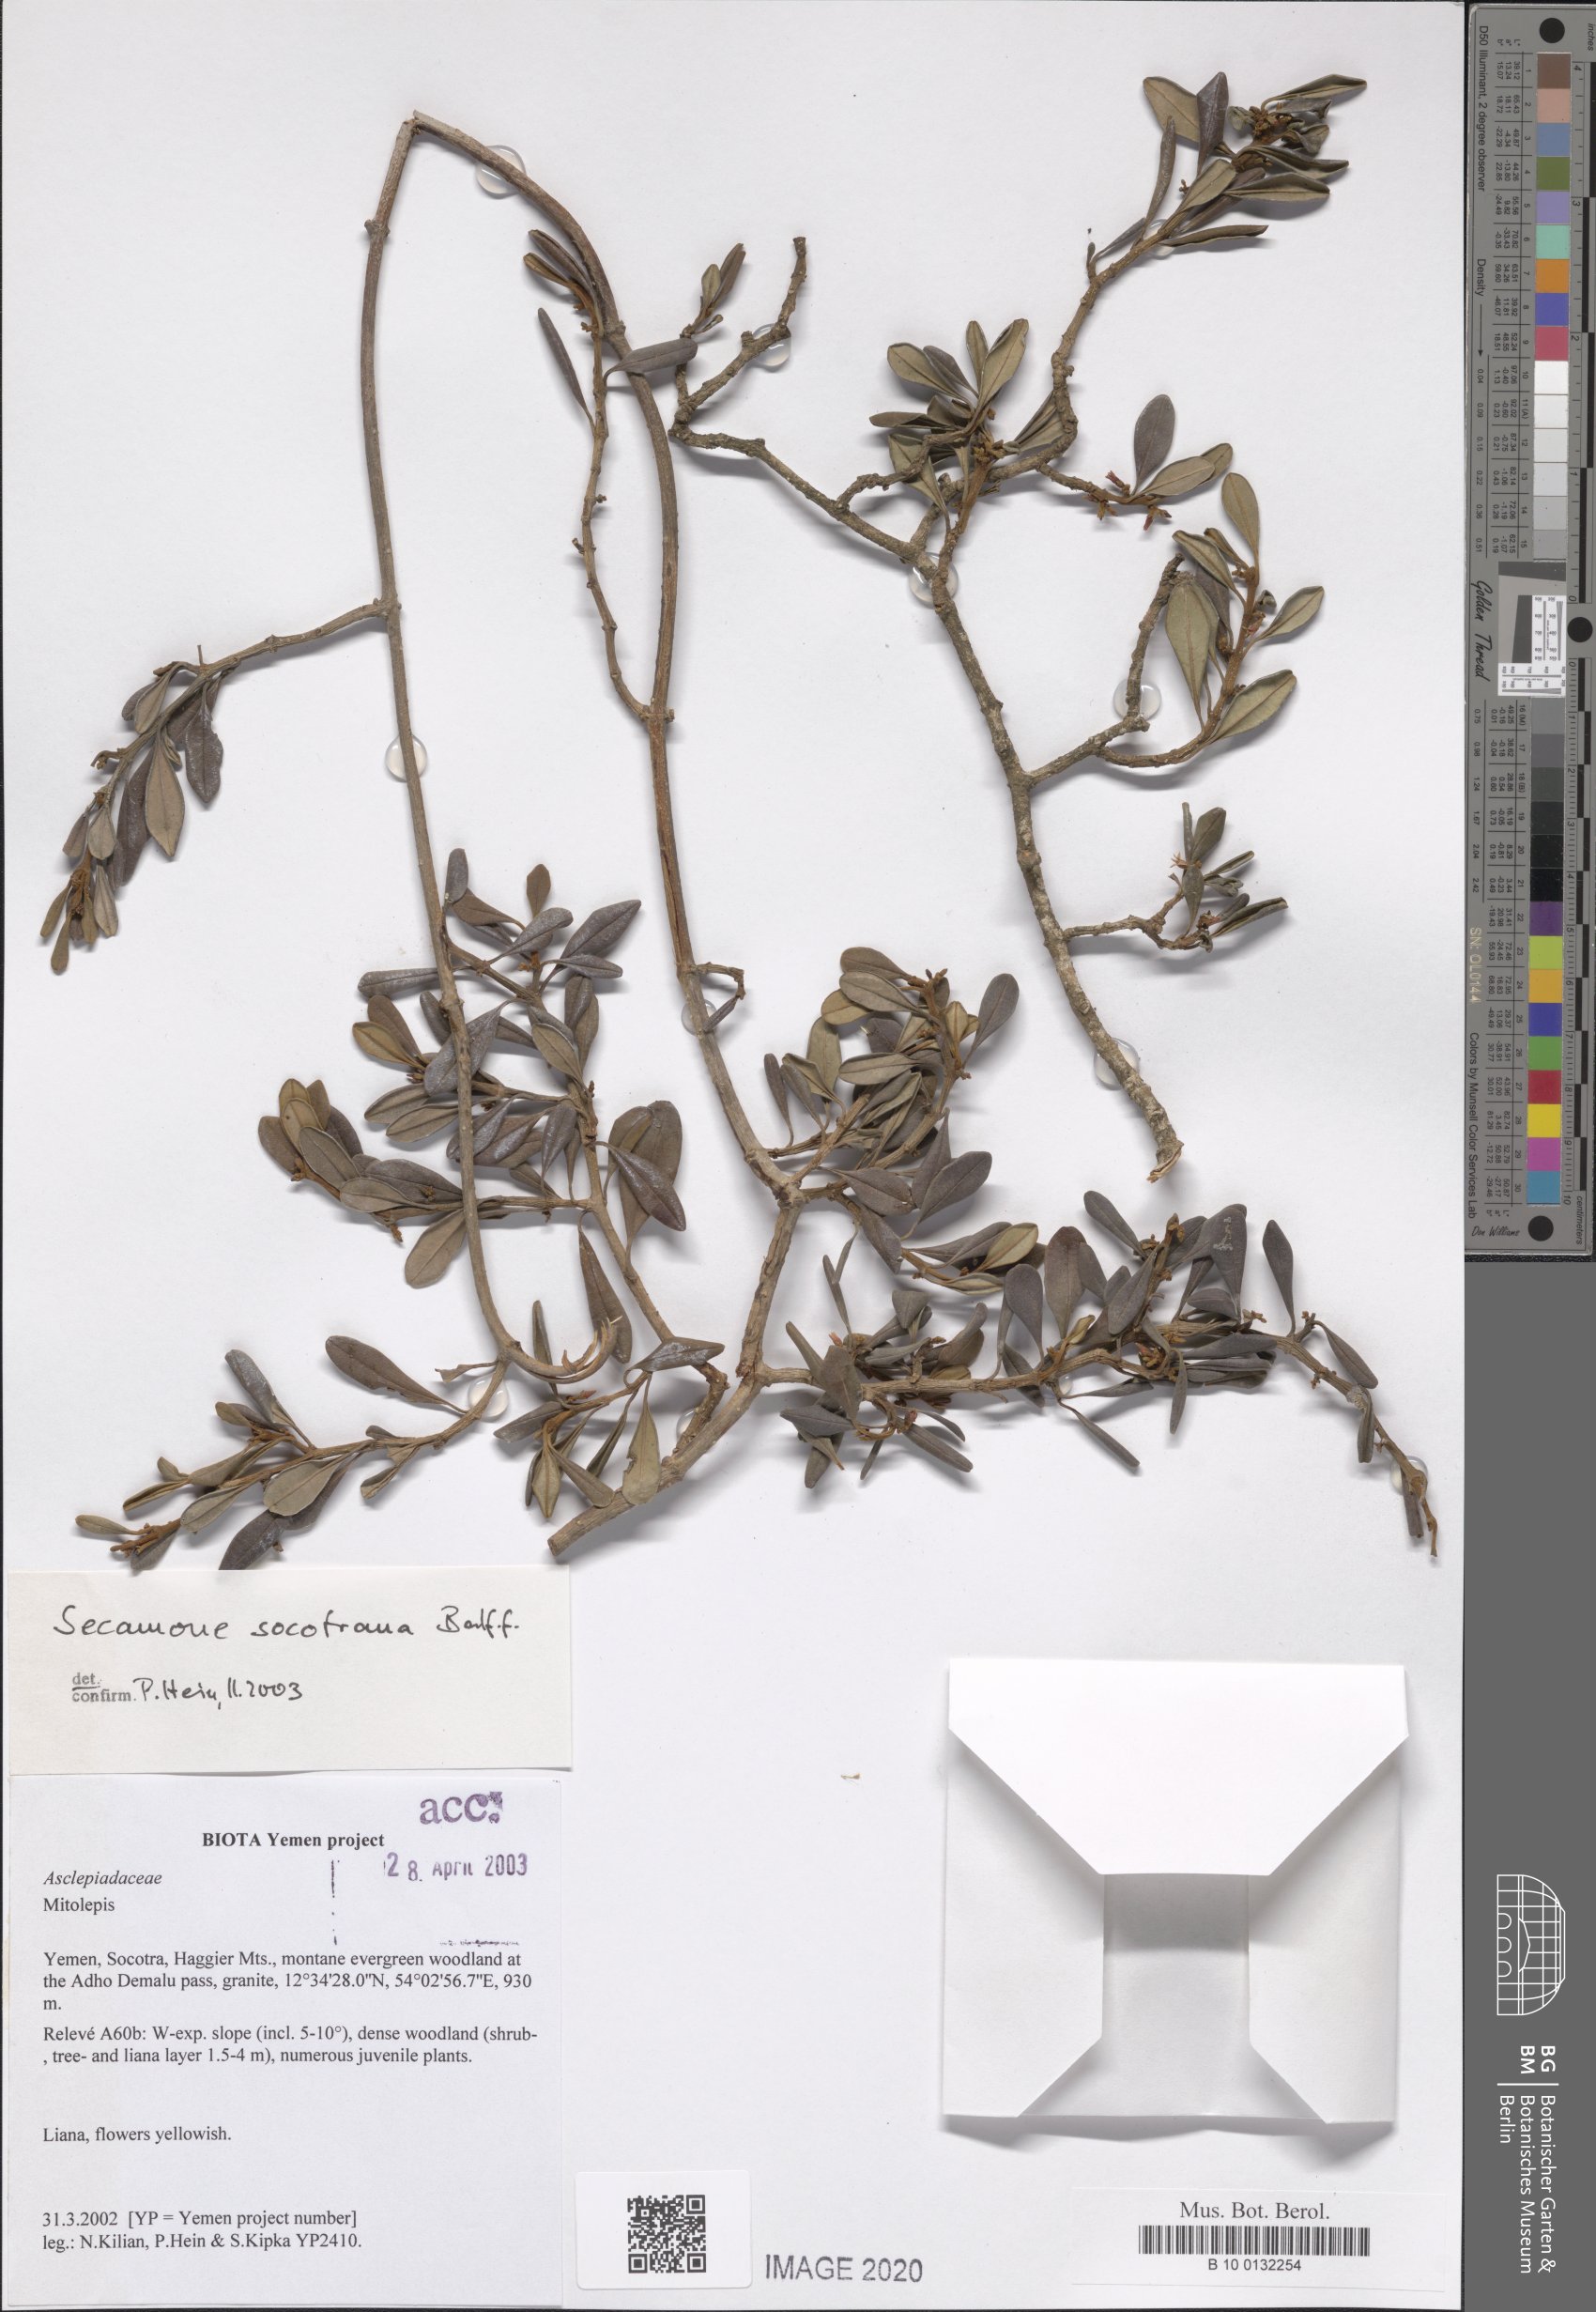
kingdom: Plantae
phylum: Tracheophyta
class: Magnoliopsida
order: Gentianales
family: Apocynaceae
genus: Secamone
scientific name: Secamone socotrana
